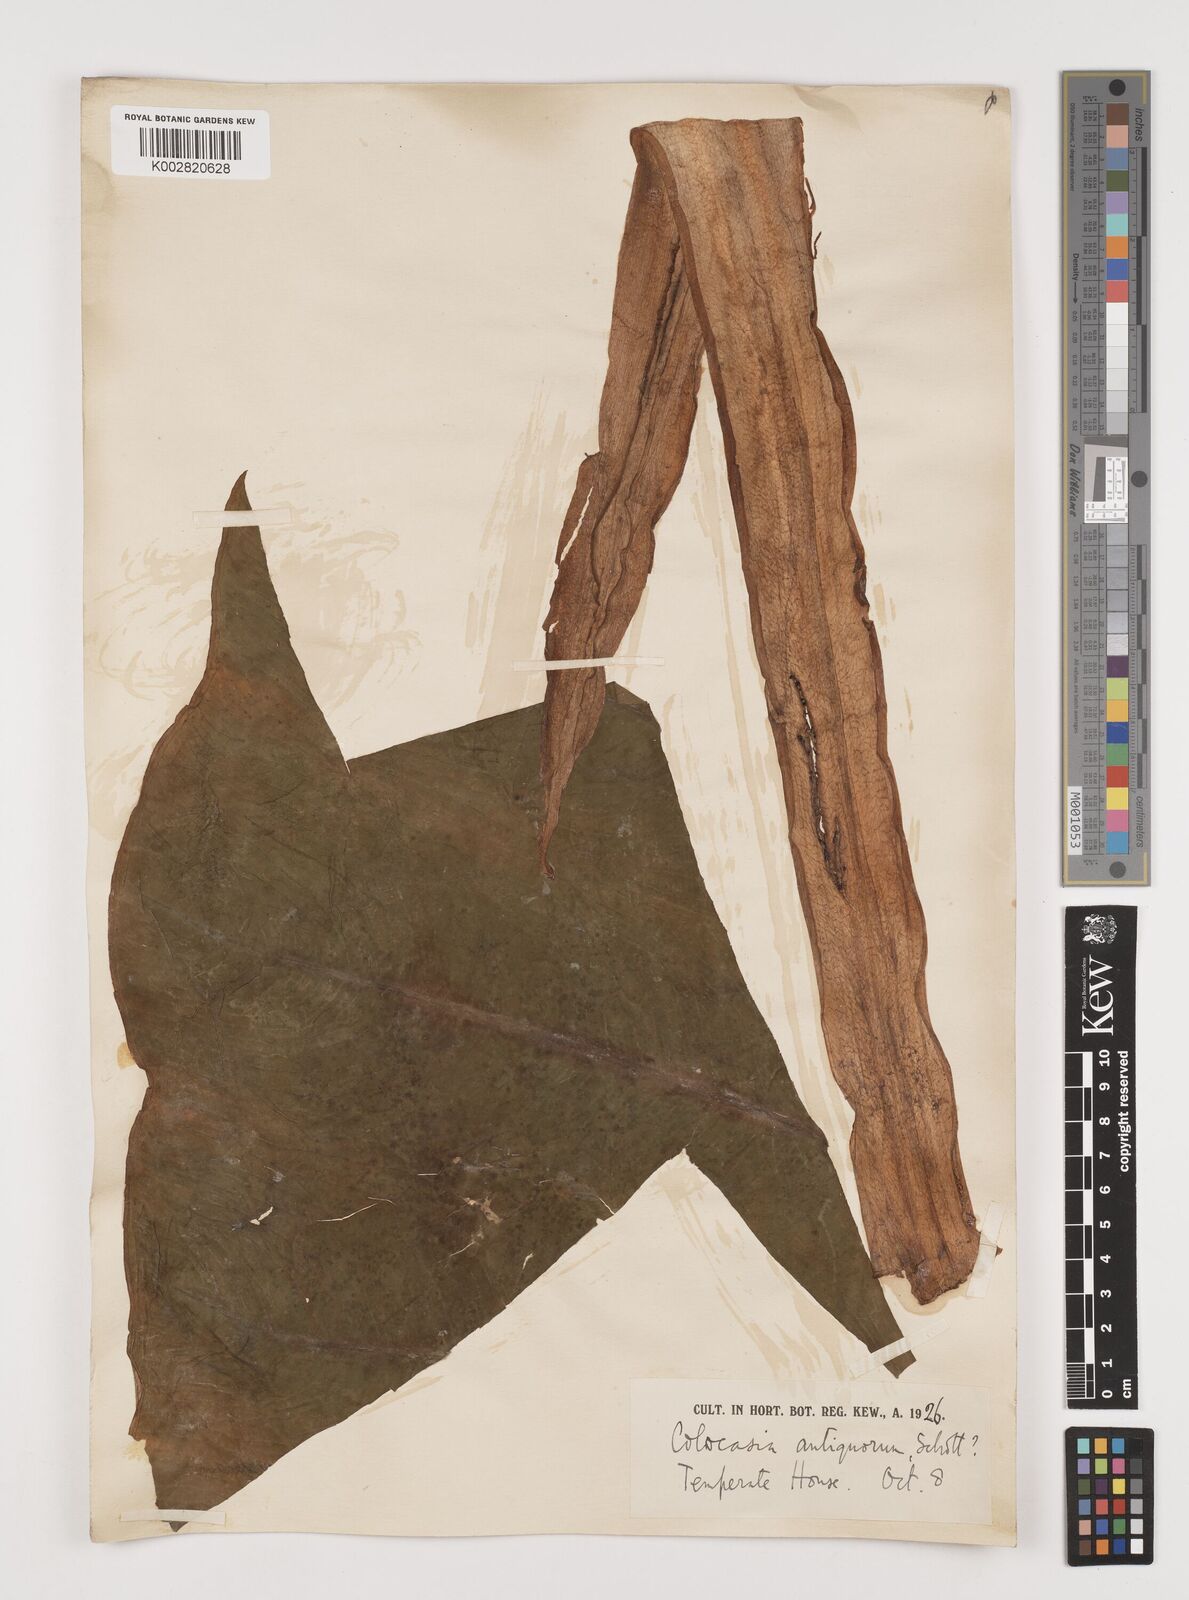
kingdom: Plantae
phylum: Tracheophyta
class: Liliopsida
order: Alismatales
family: Araceae
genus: Leucocasia
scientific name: Leucocasia gigantea
